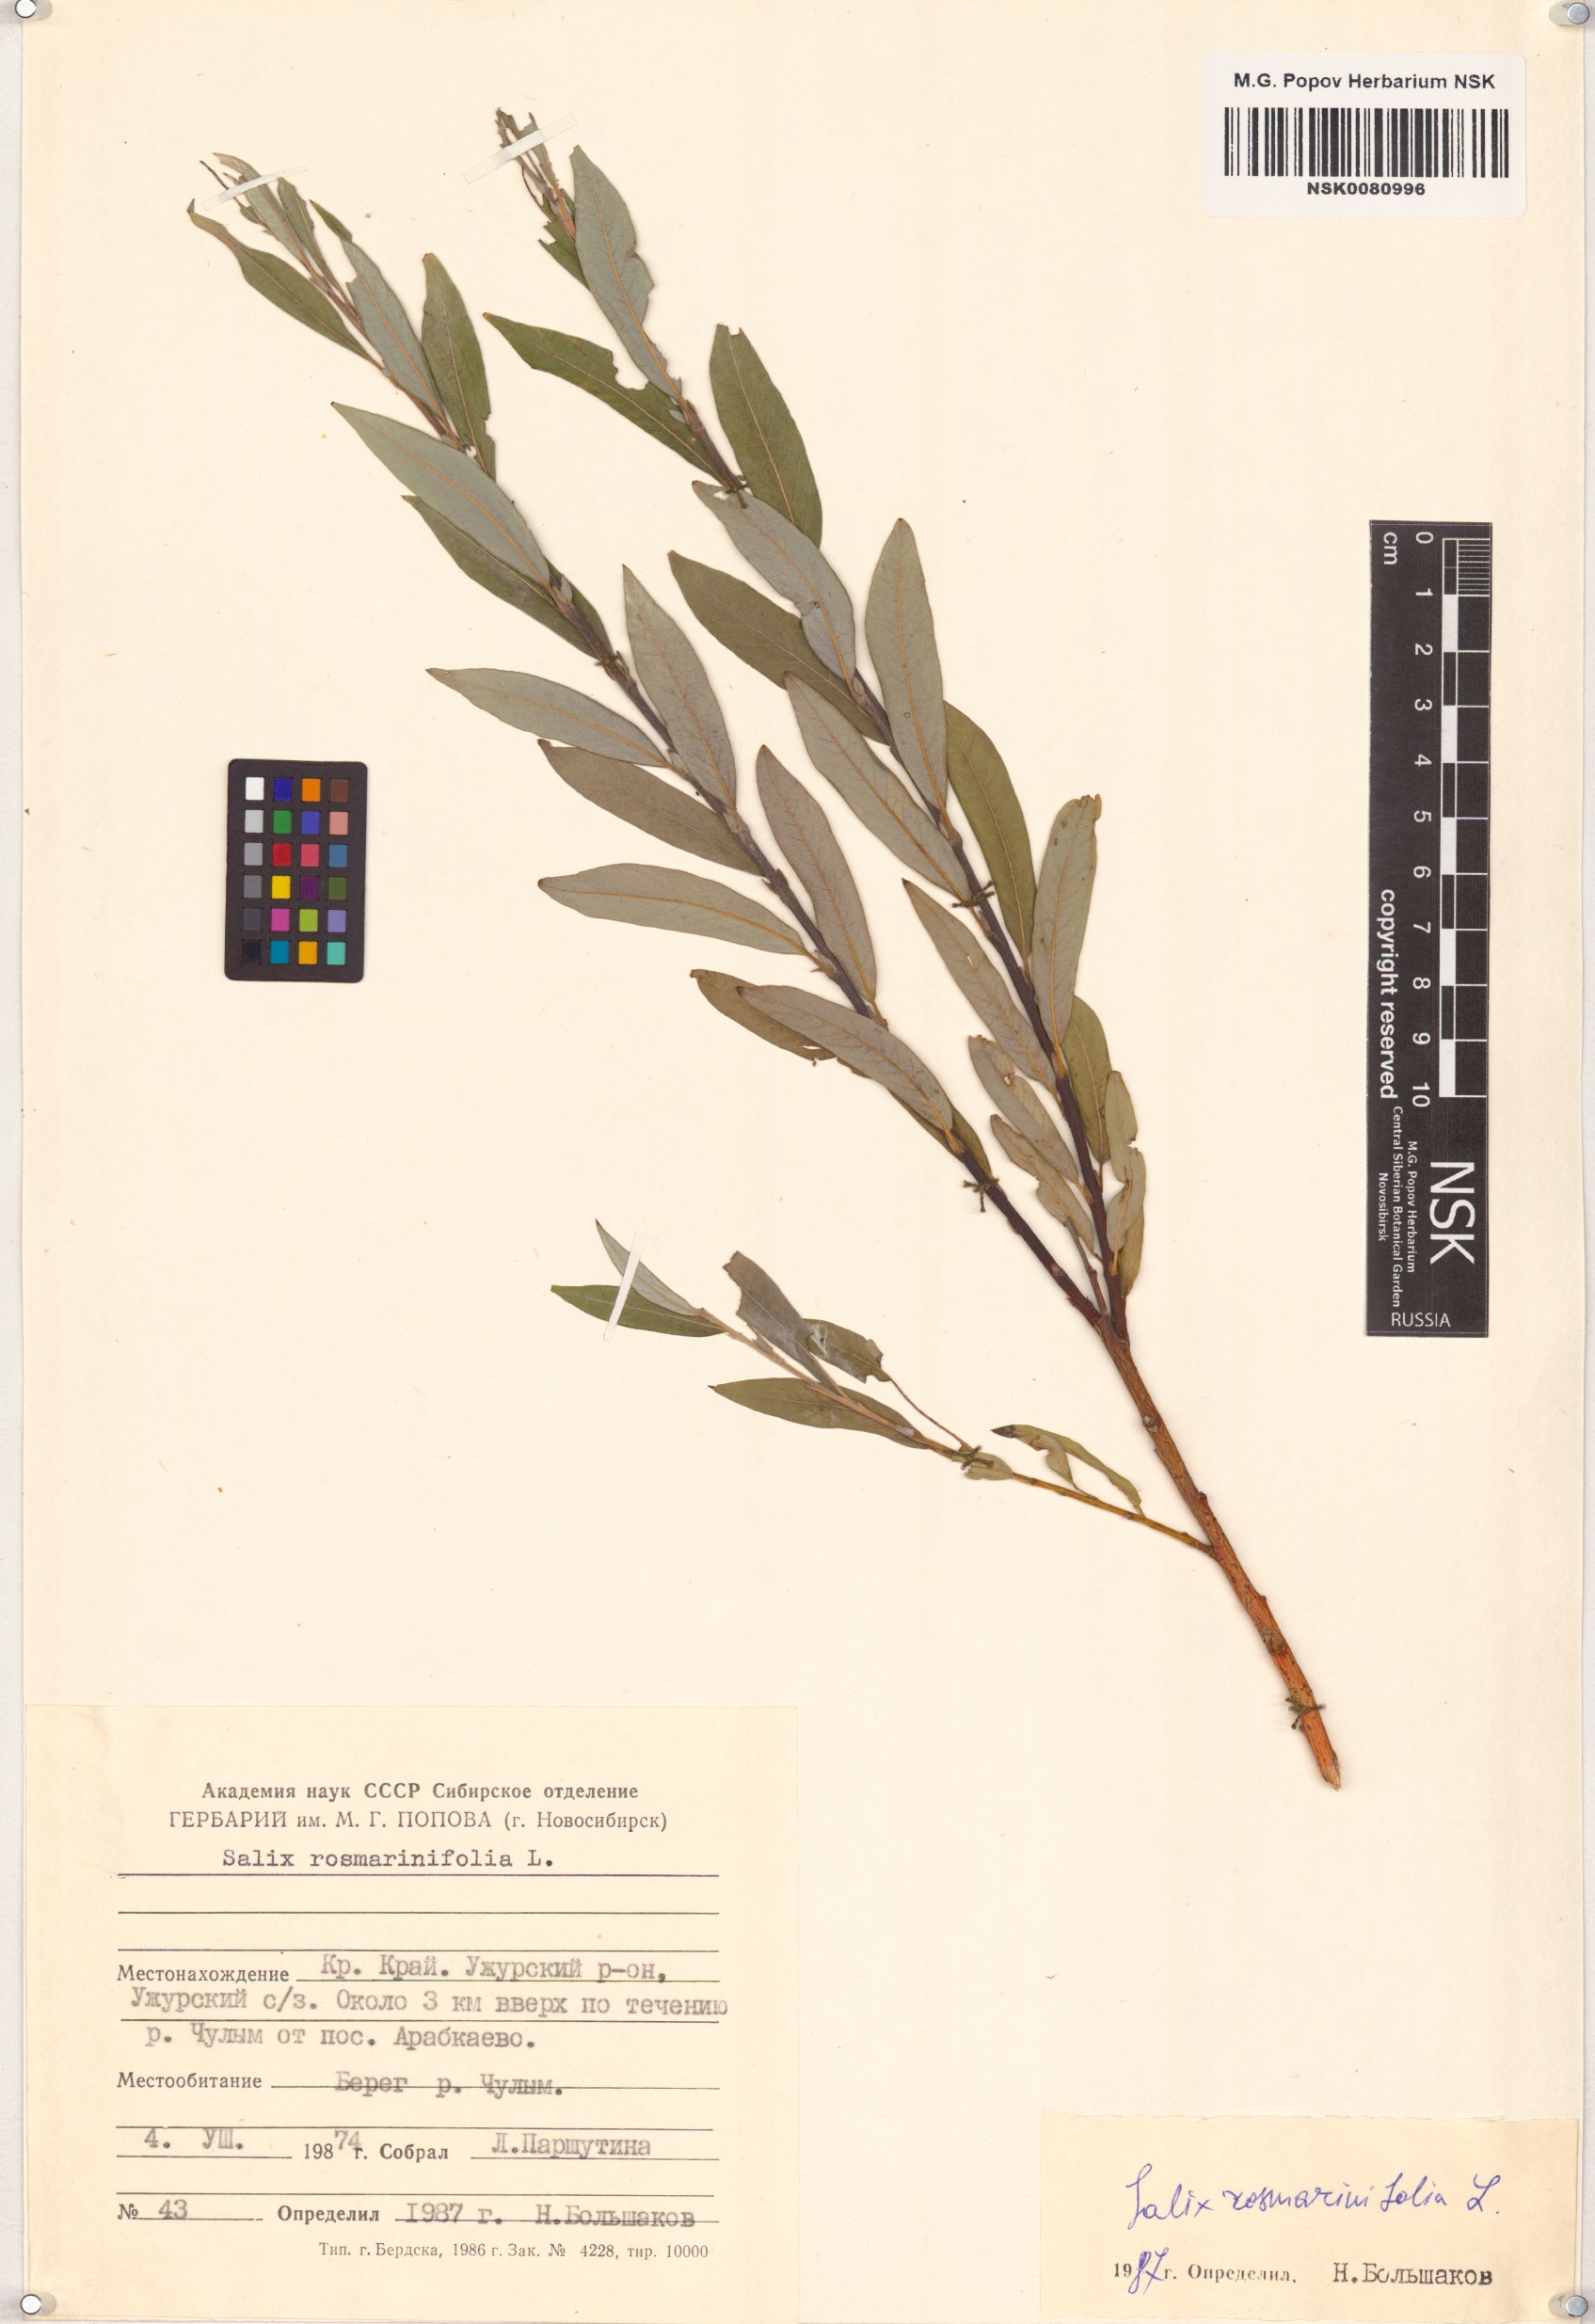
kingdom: Plantae
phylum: Tracheophyta
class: Magnoliopsida
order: Malpighiales
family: Salicaceae
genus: Salix
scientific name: Salix rosmarinifolia
